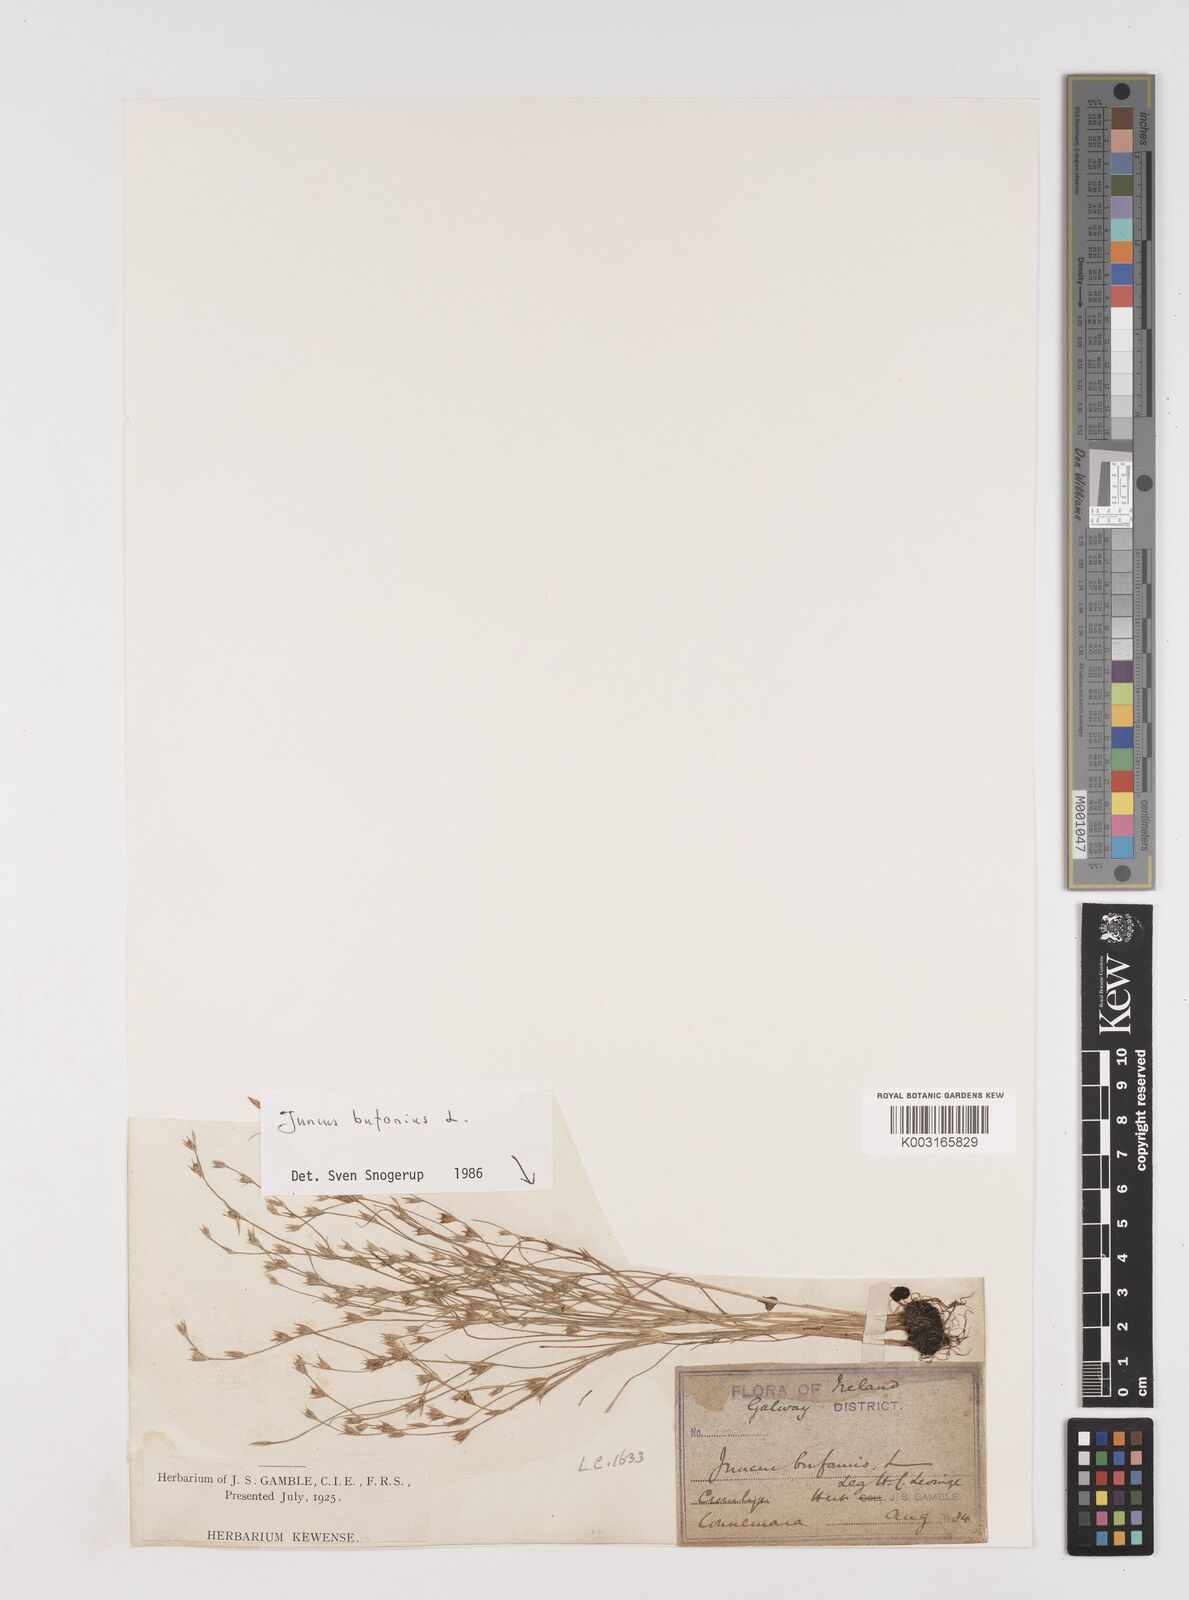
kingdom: Plantae
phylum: Tracheophyta
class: Liliopsida
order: Poales
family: Juncaceae
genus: Juncus
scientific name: Juncus bufonius
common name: Toad rush
